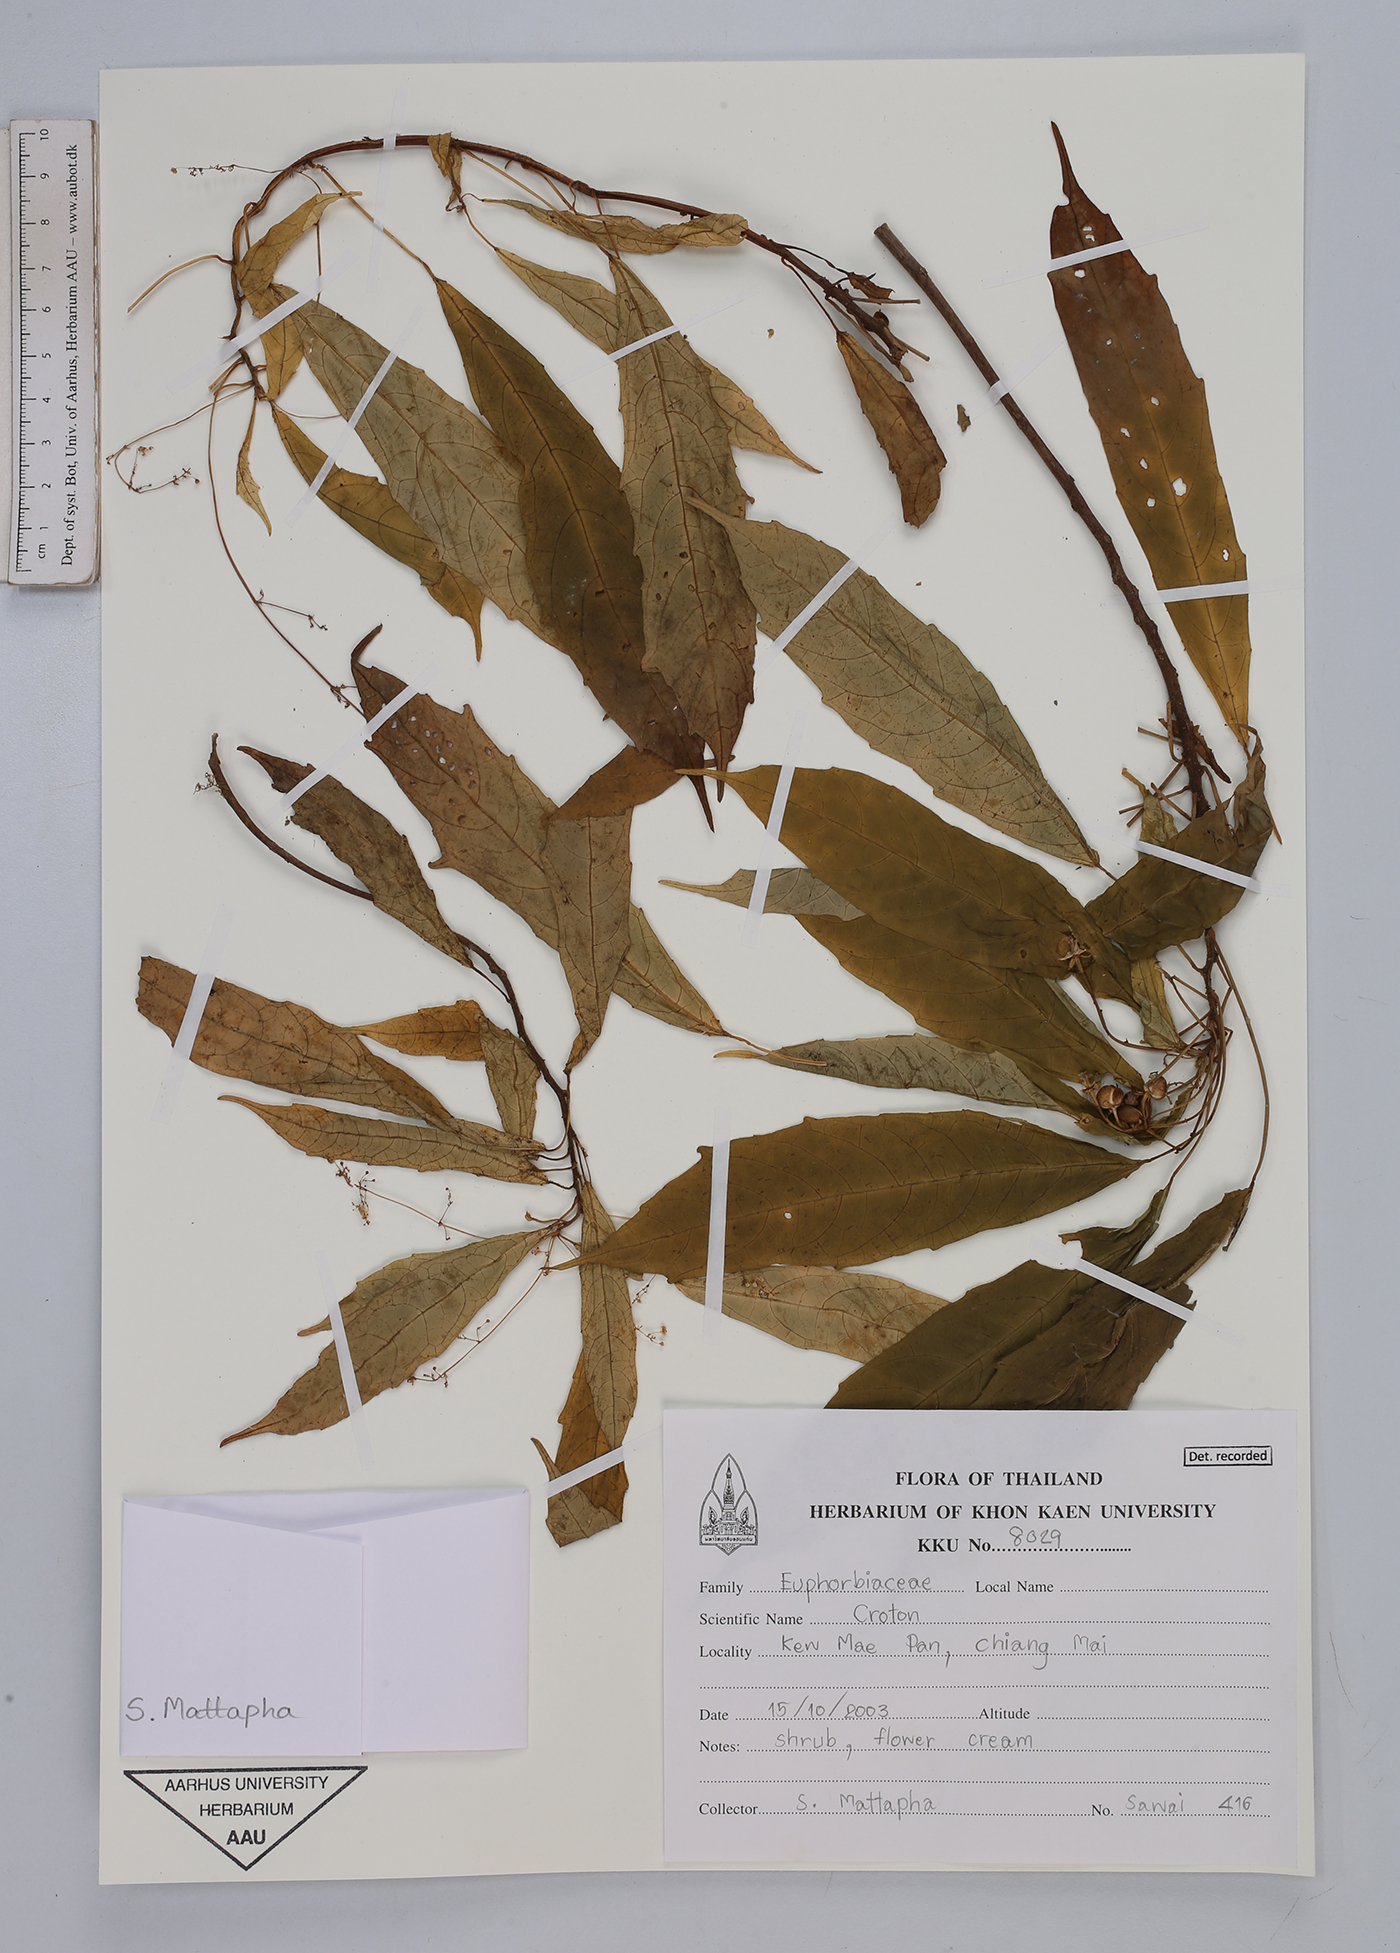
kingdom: Plantae
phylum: Tracheophyta
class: Magnoliopsida
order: Malpighiales
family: Euphorbiaceae
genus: Croton
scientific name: Croton
